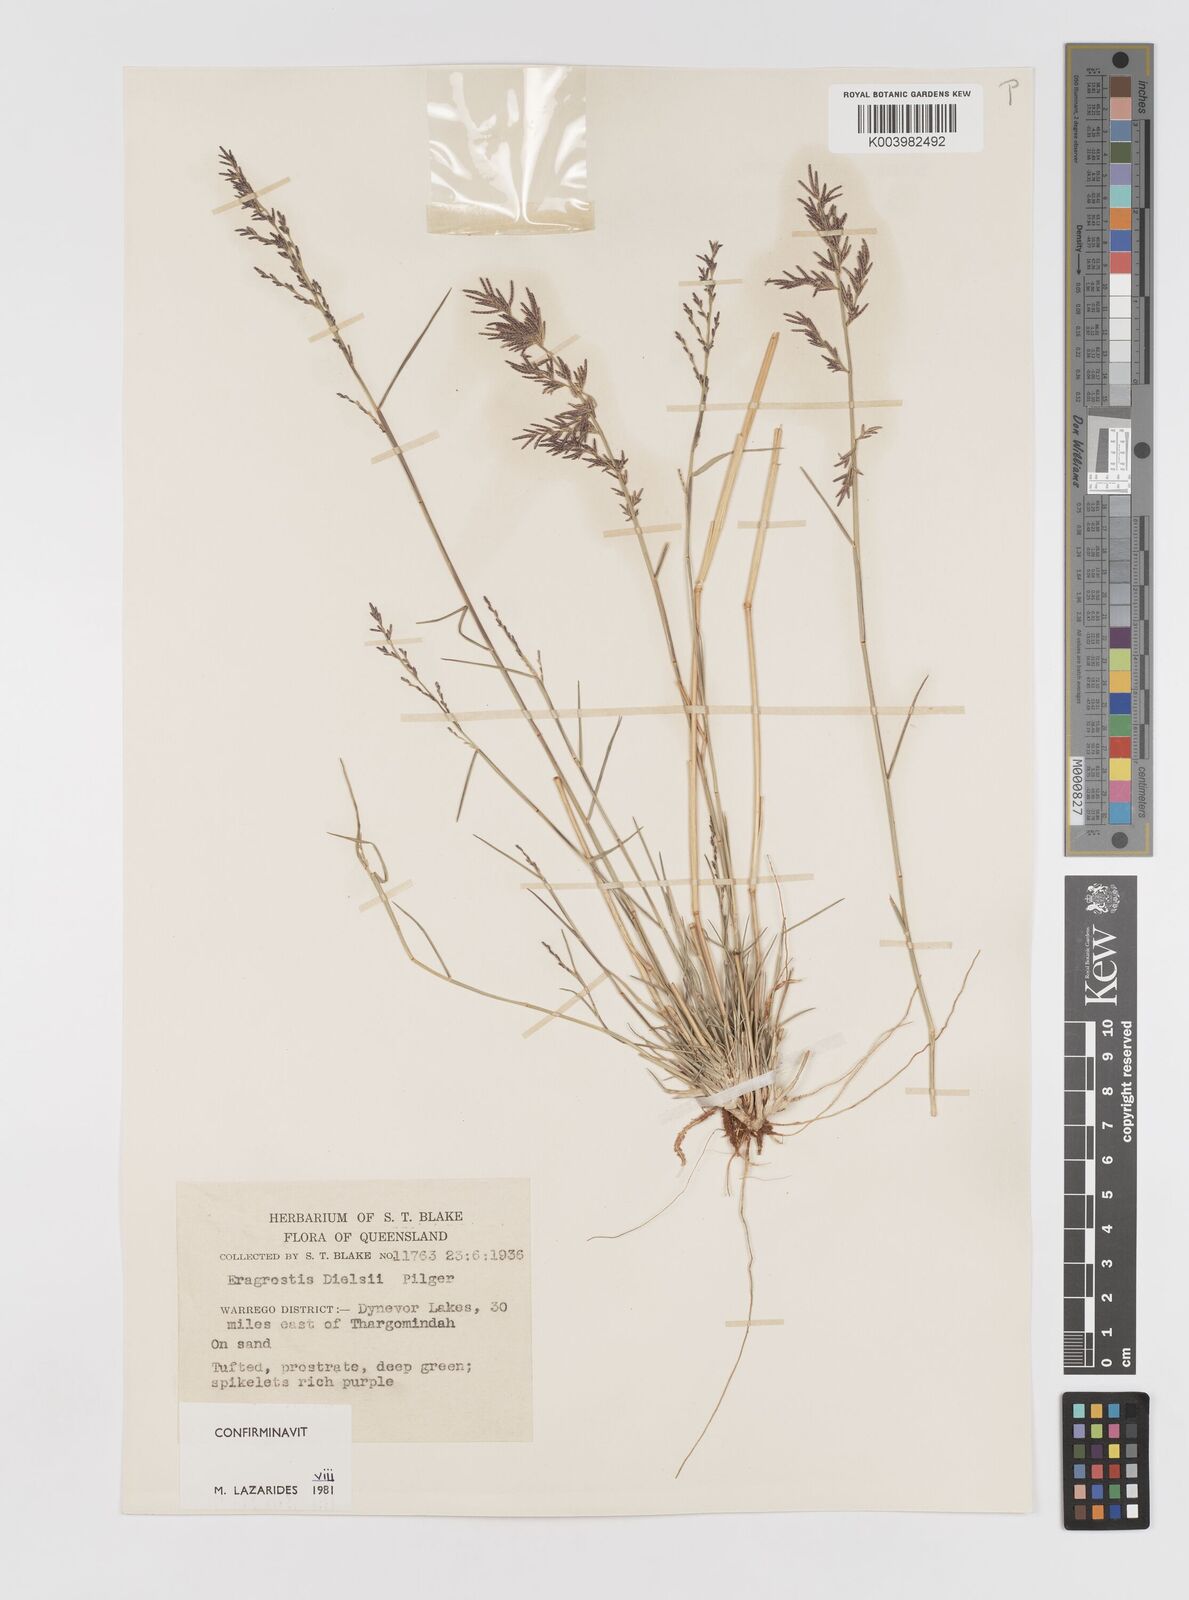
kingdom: Plantae
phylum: Tracheophyta
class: Liliopsida
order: Poales
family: Poaceae
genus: Eragrostis
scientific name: Eragrostis dielsii
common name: Lovegrass
